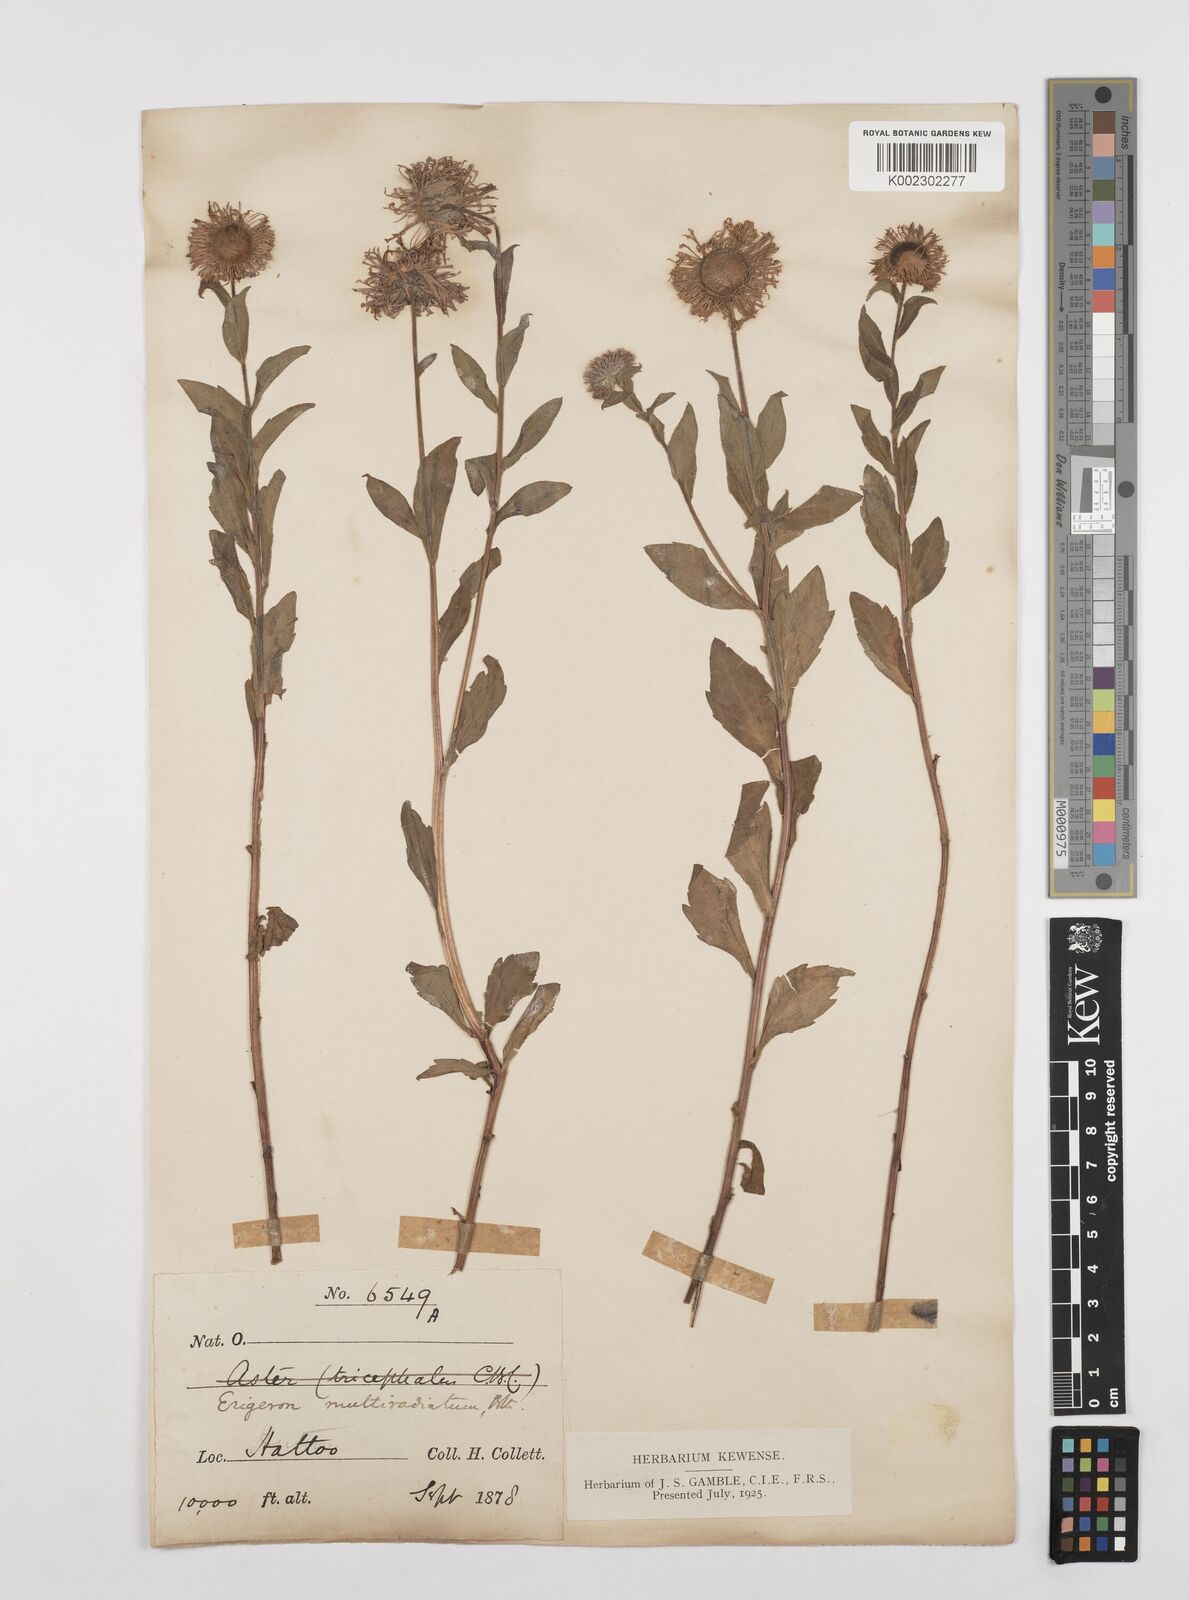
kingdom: Plantae
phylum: Tracheophyta
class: Magnoliopsida
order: Asterales
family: Asteraceae
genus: Erigeron
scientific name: Erigeron multiradiatus
